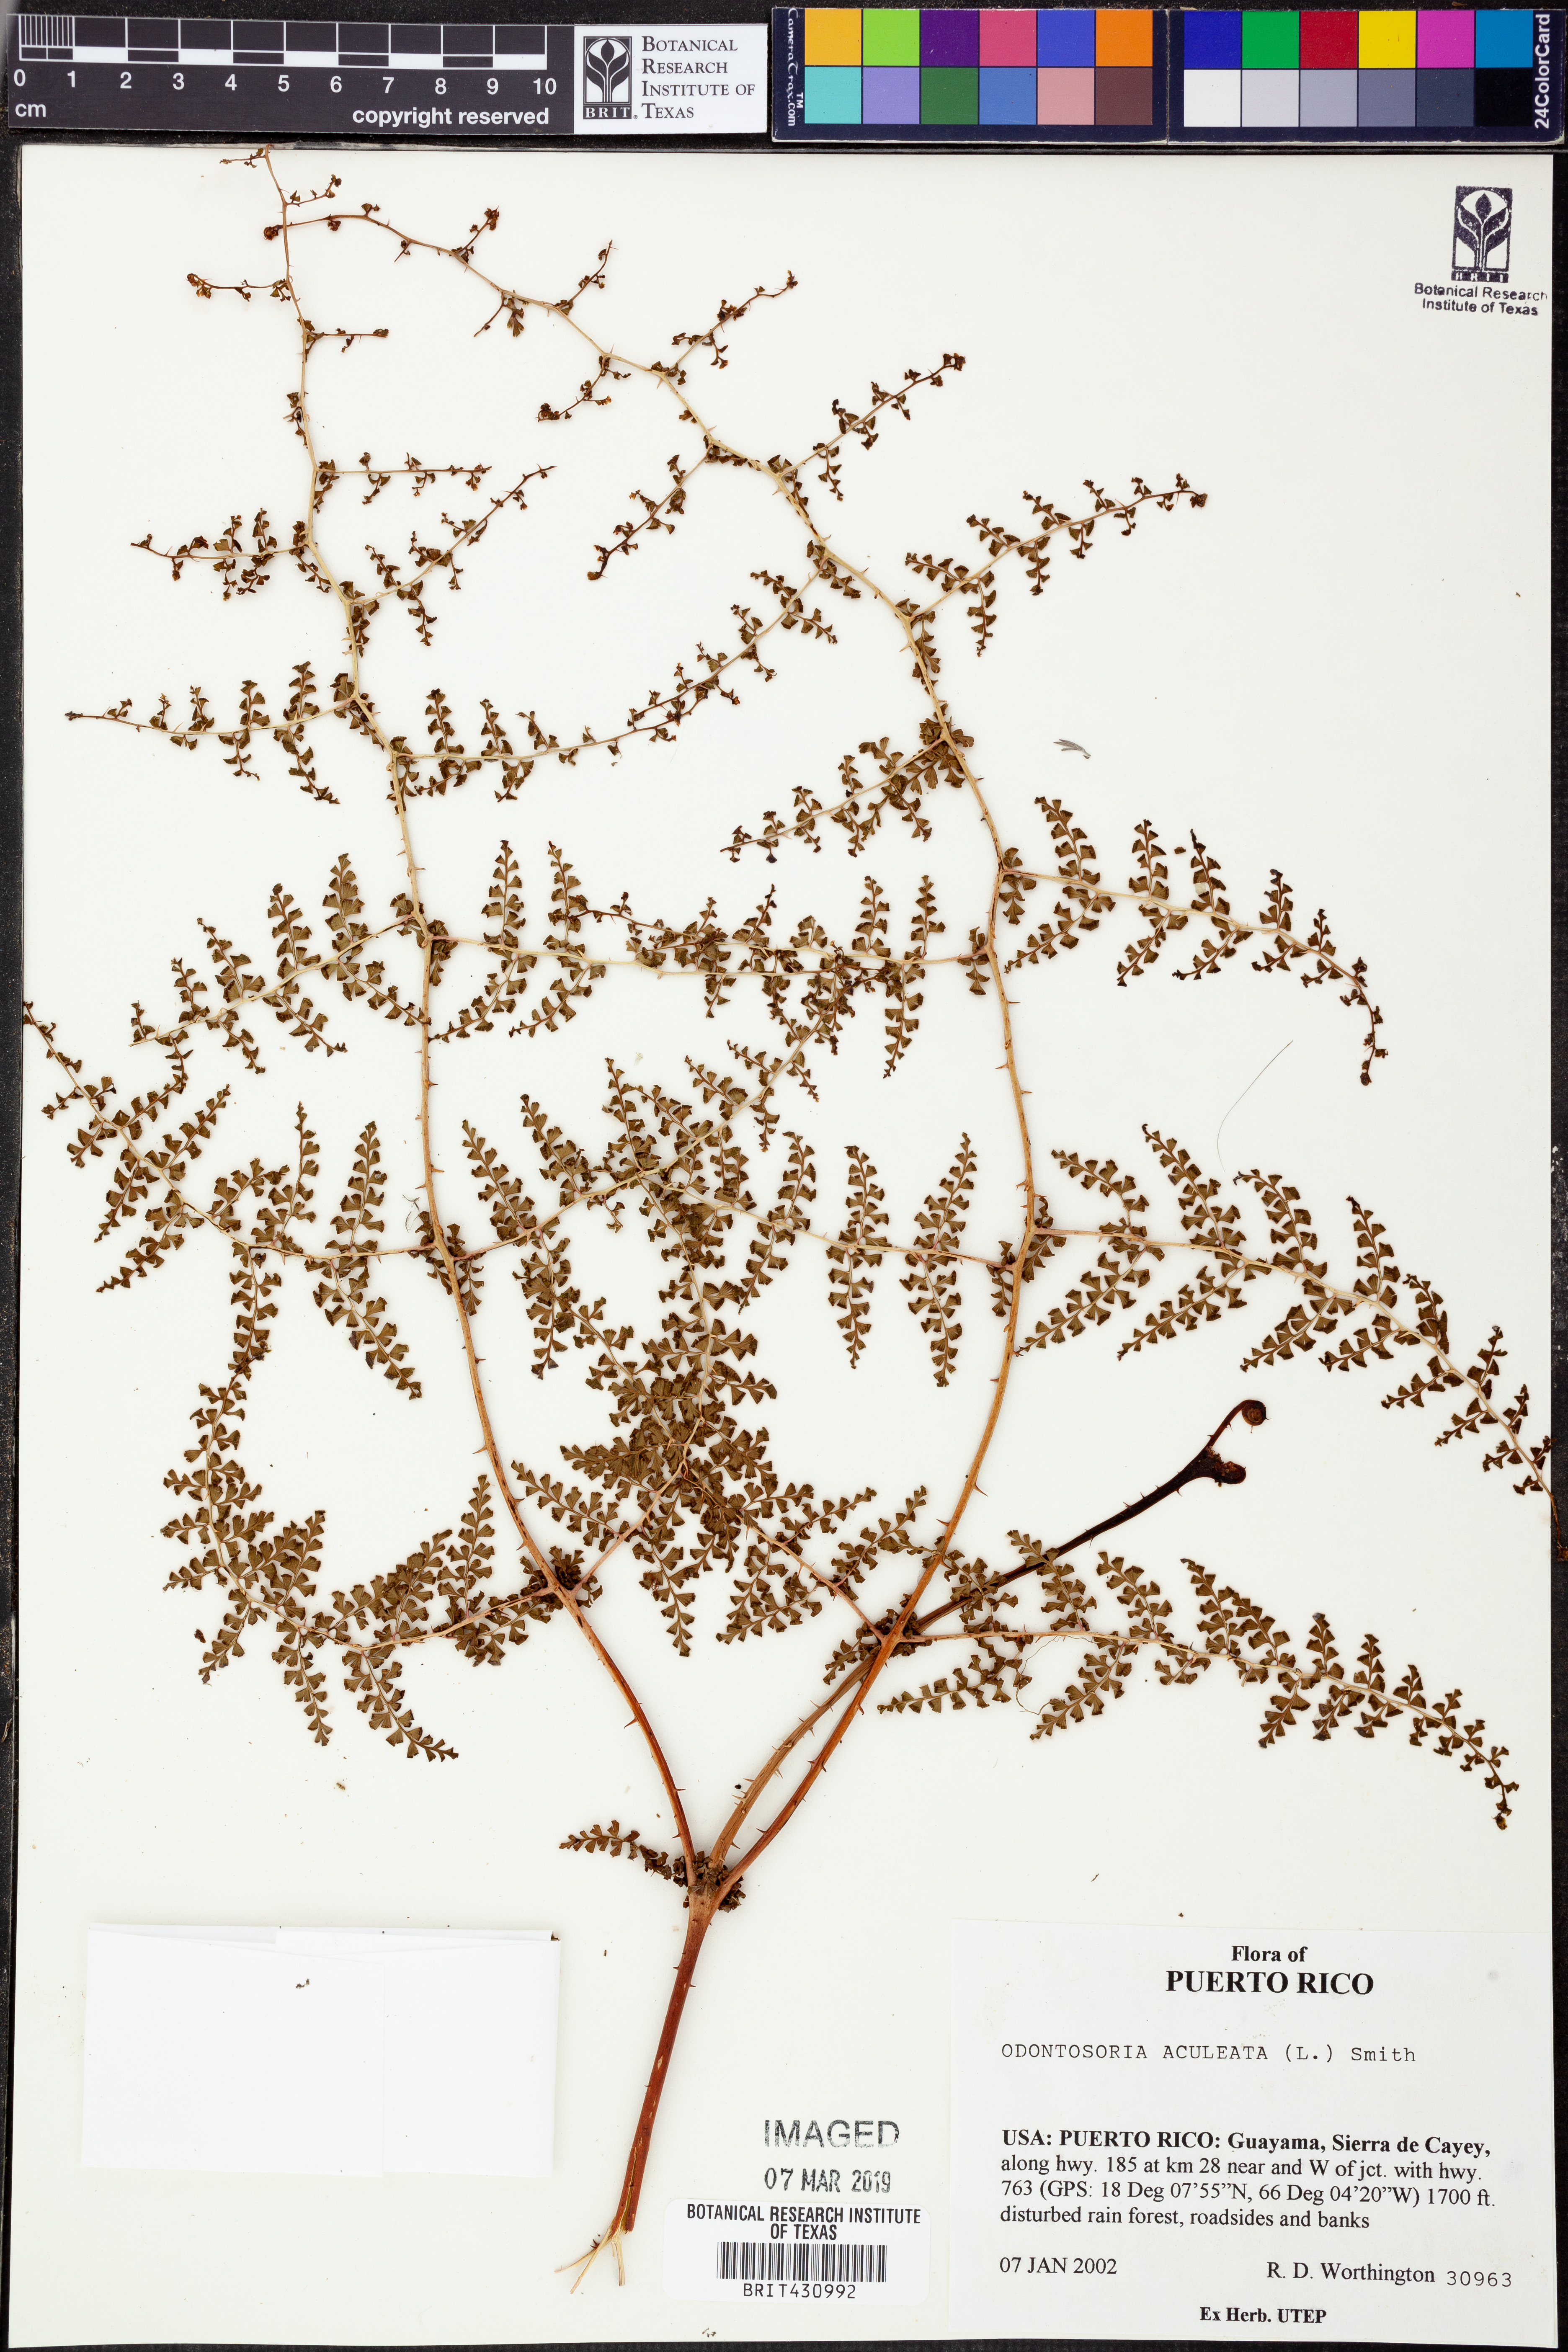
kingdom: Plantae
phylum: Tracheophyta
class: Polypodiopsida
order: Polypodiales
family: Lindsaeaceae
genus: Odontosoria
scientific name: Odontosoria aculeata
